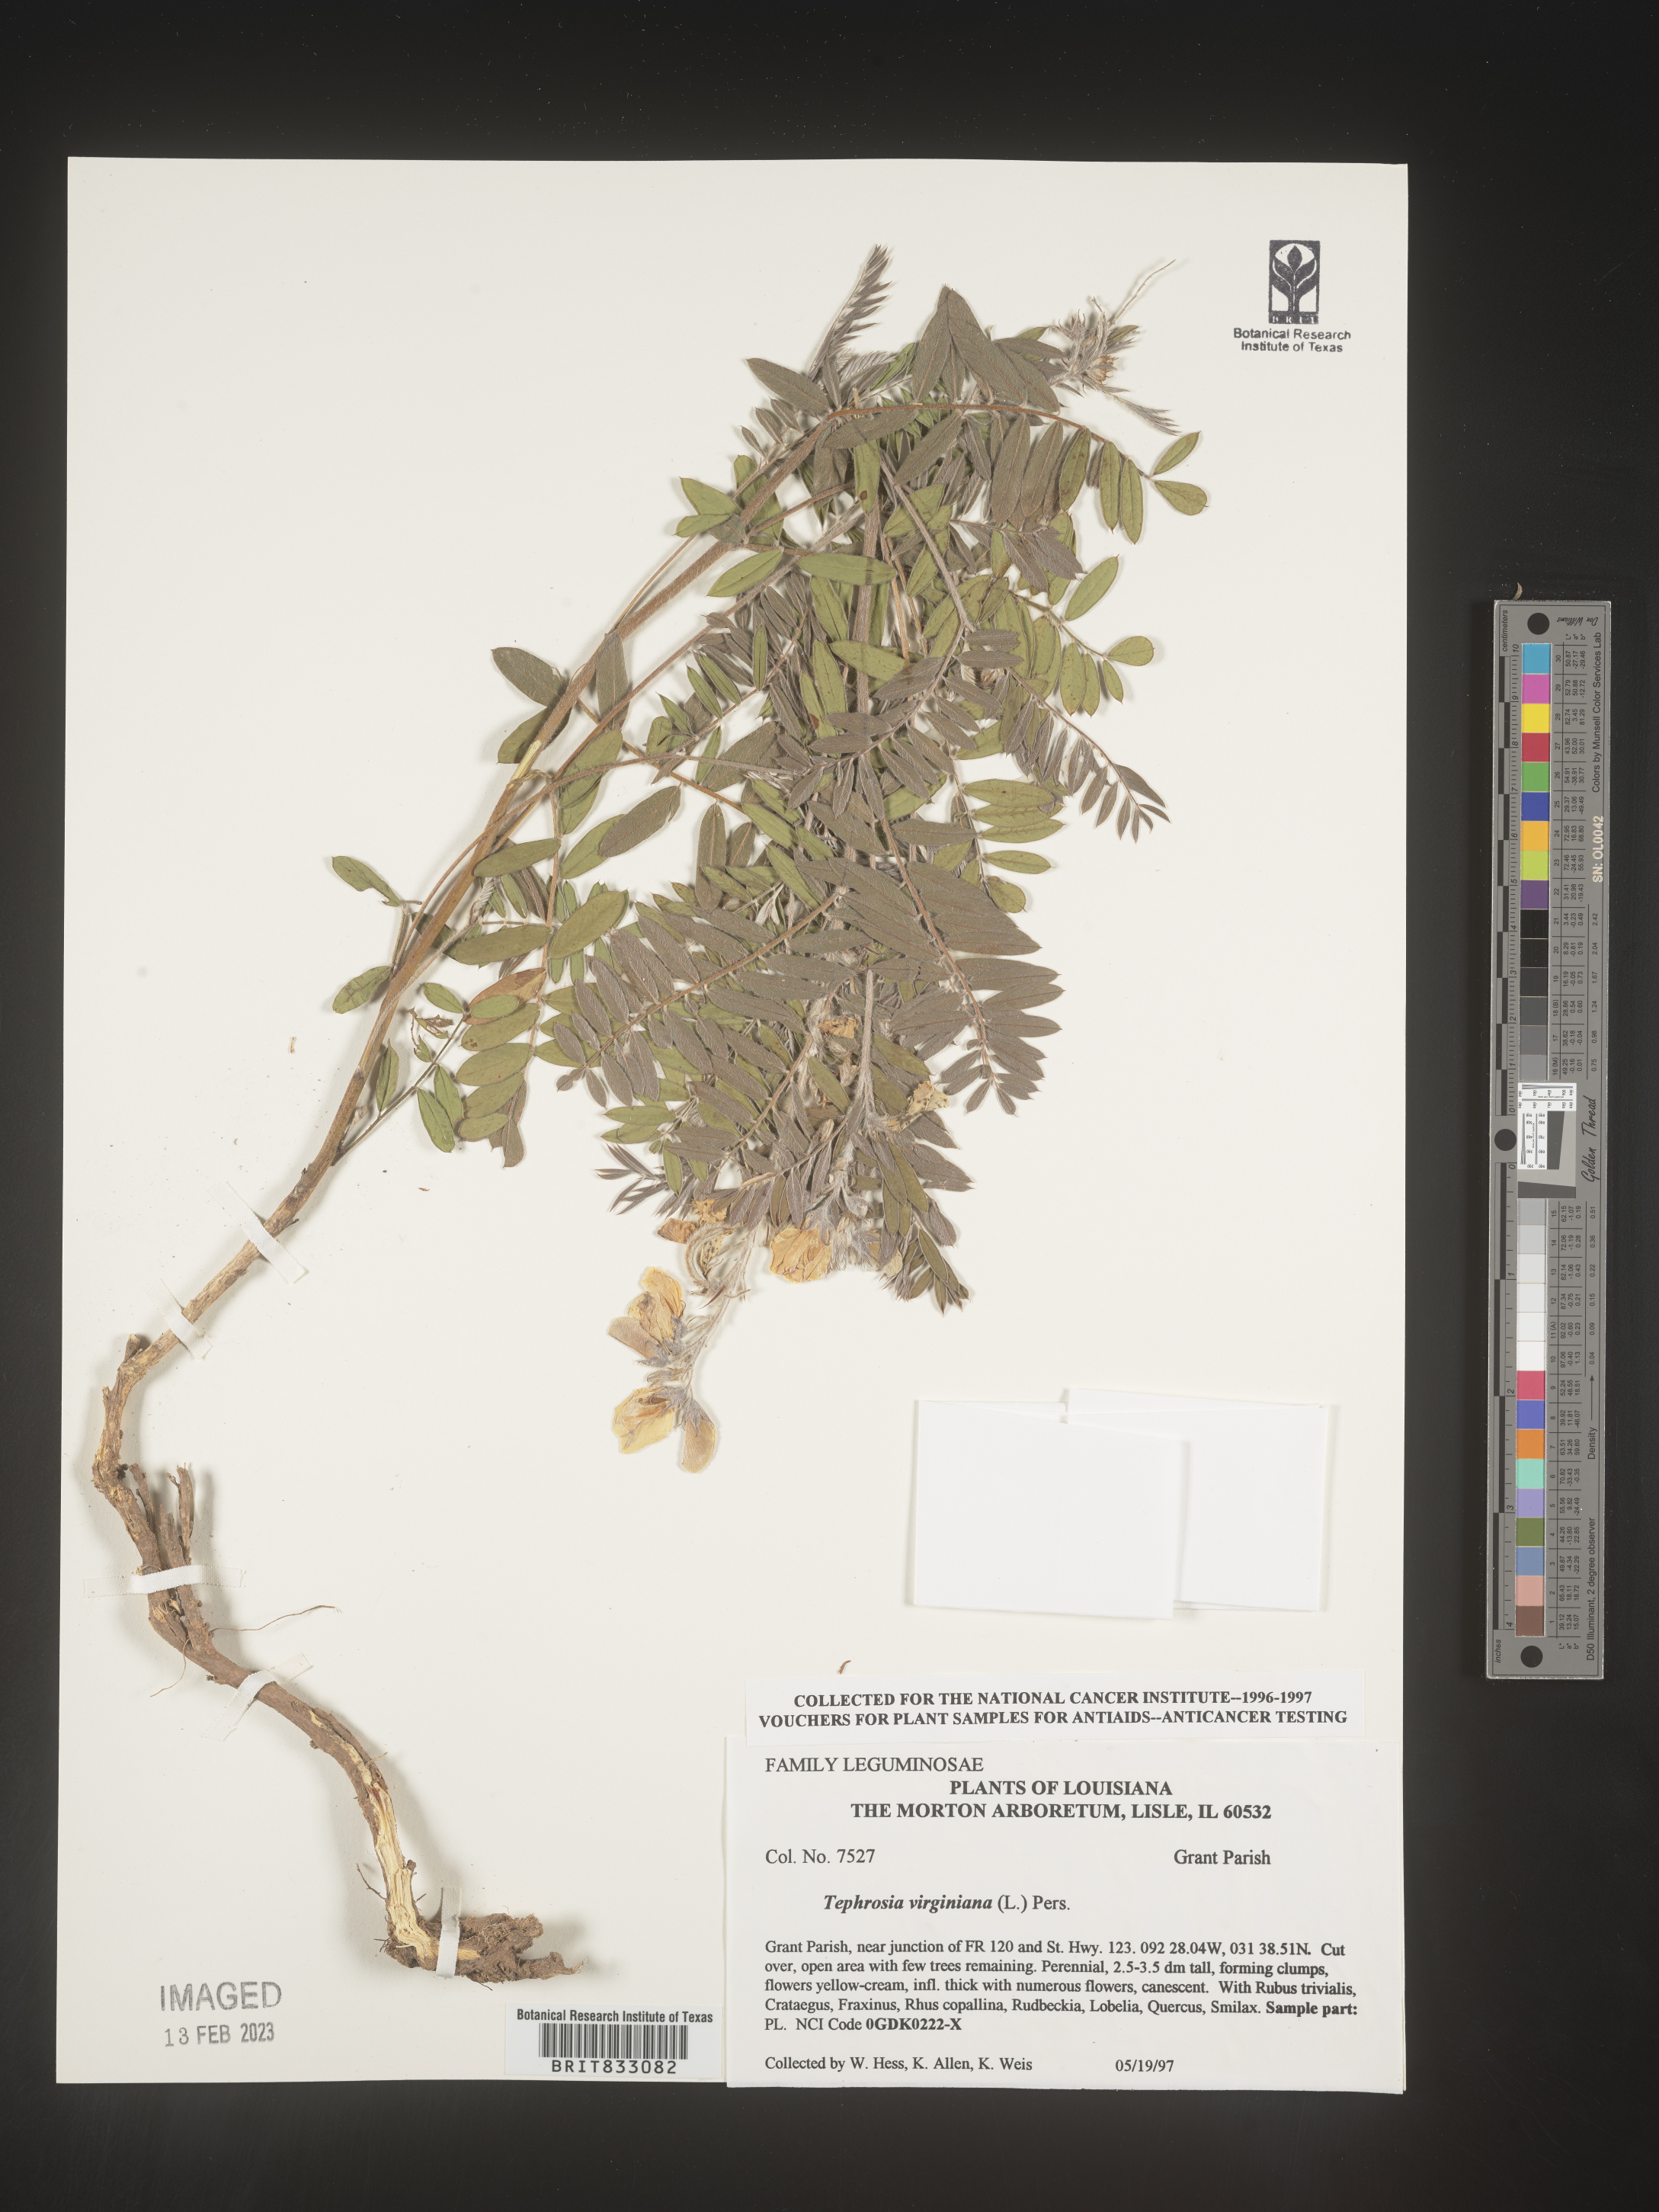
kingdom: Plantae
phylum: Tracheophyta
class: Magnoliopsida
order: Fabales
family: Fabaceae
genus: Tephrosia
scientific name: Tephrosia virginiana
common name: Rabbit-pea
